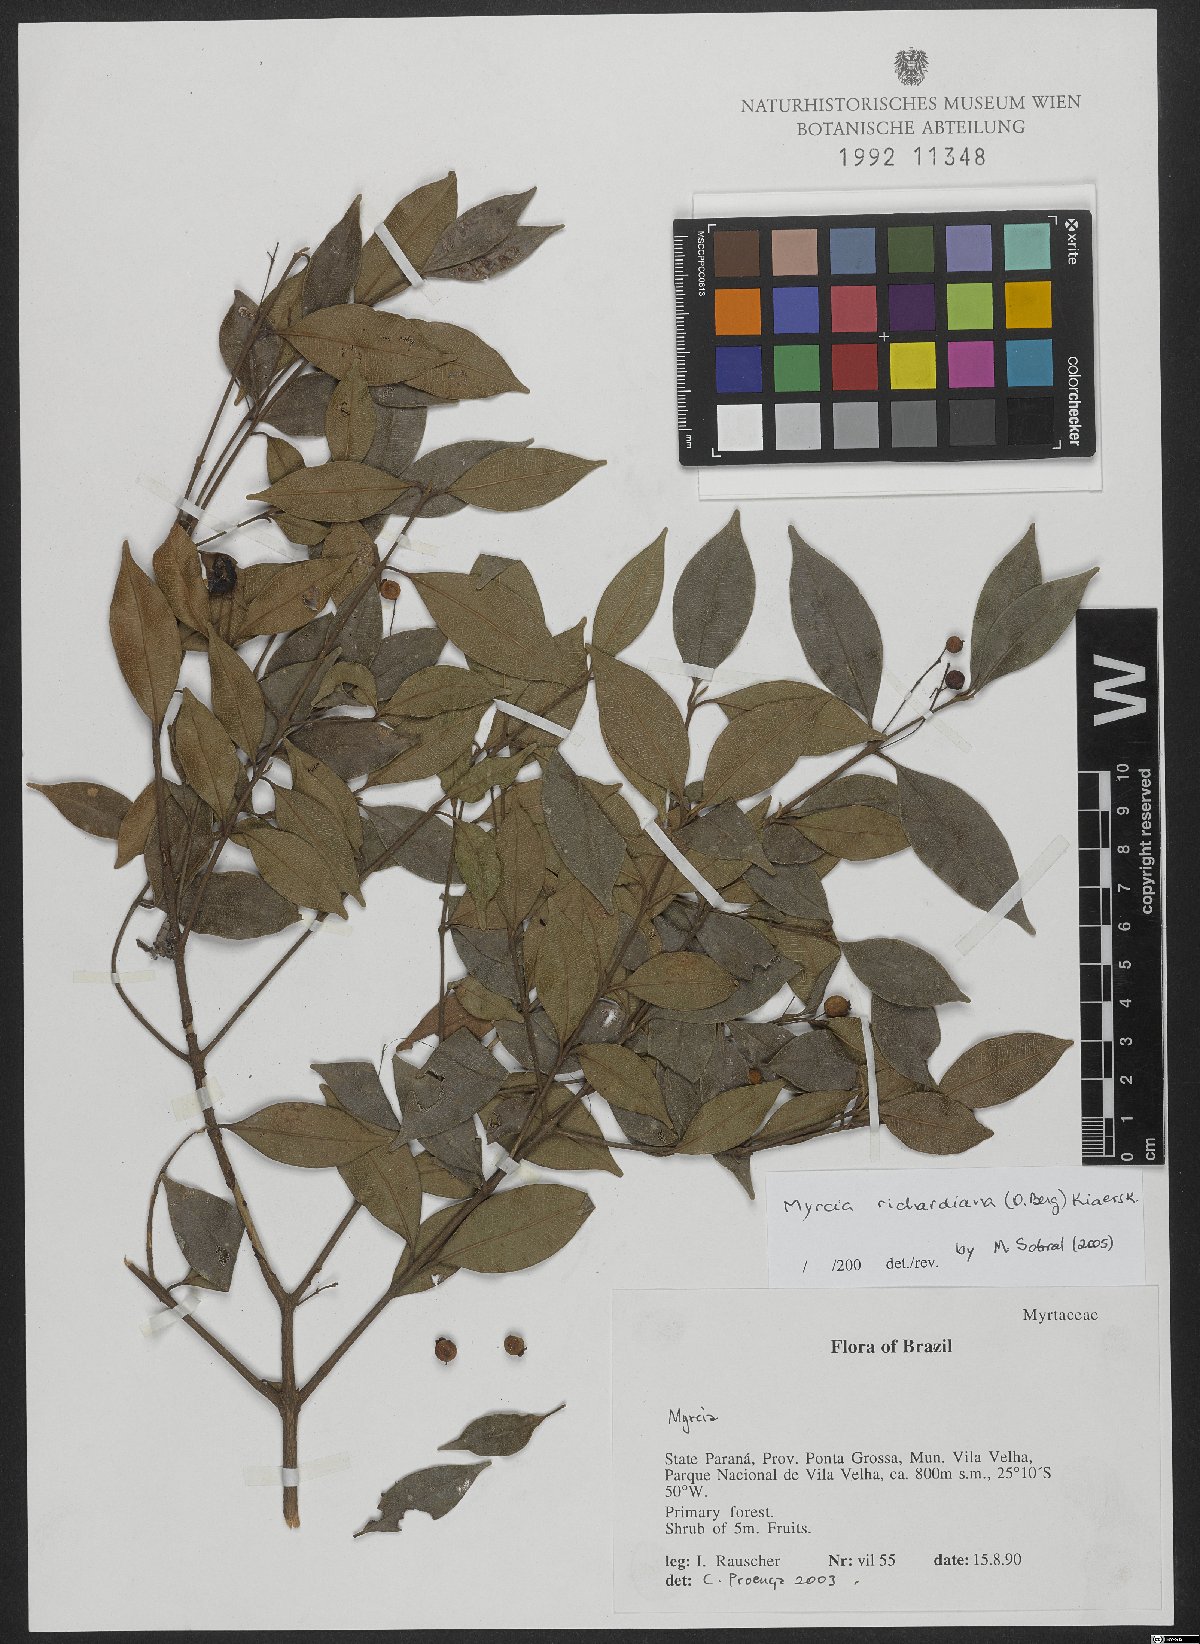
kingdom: Plantae
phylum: Tracheophyta
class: Magnoliopsida
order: Myrtales
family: Myrtaceae
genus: Myrcia
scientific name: Myrcia richardiana
